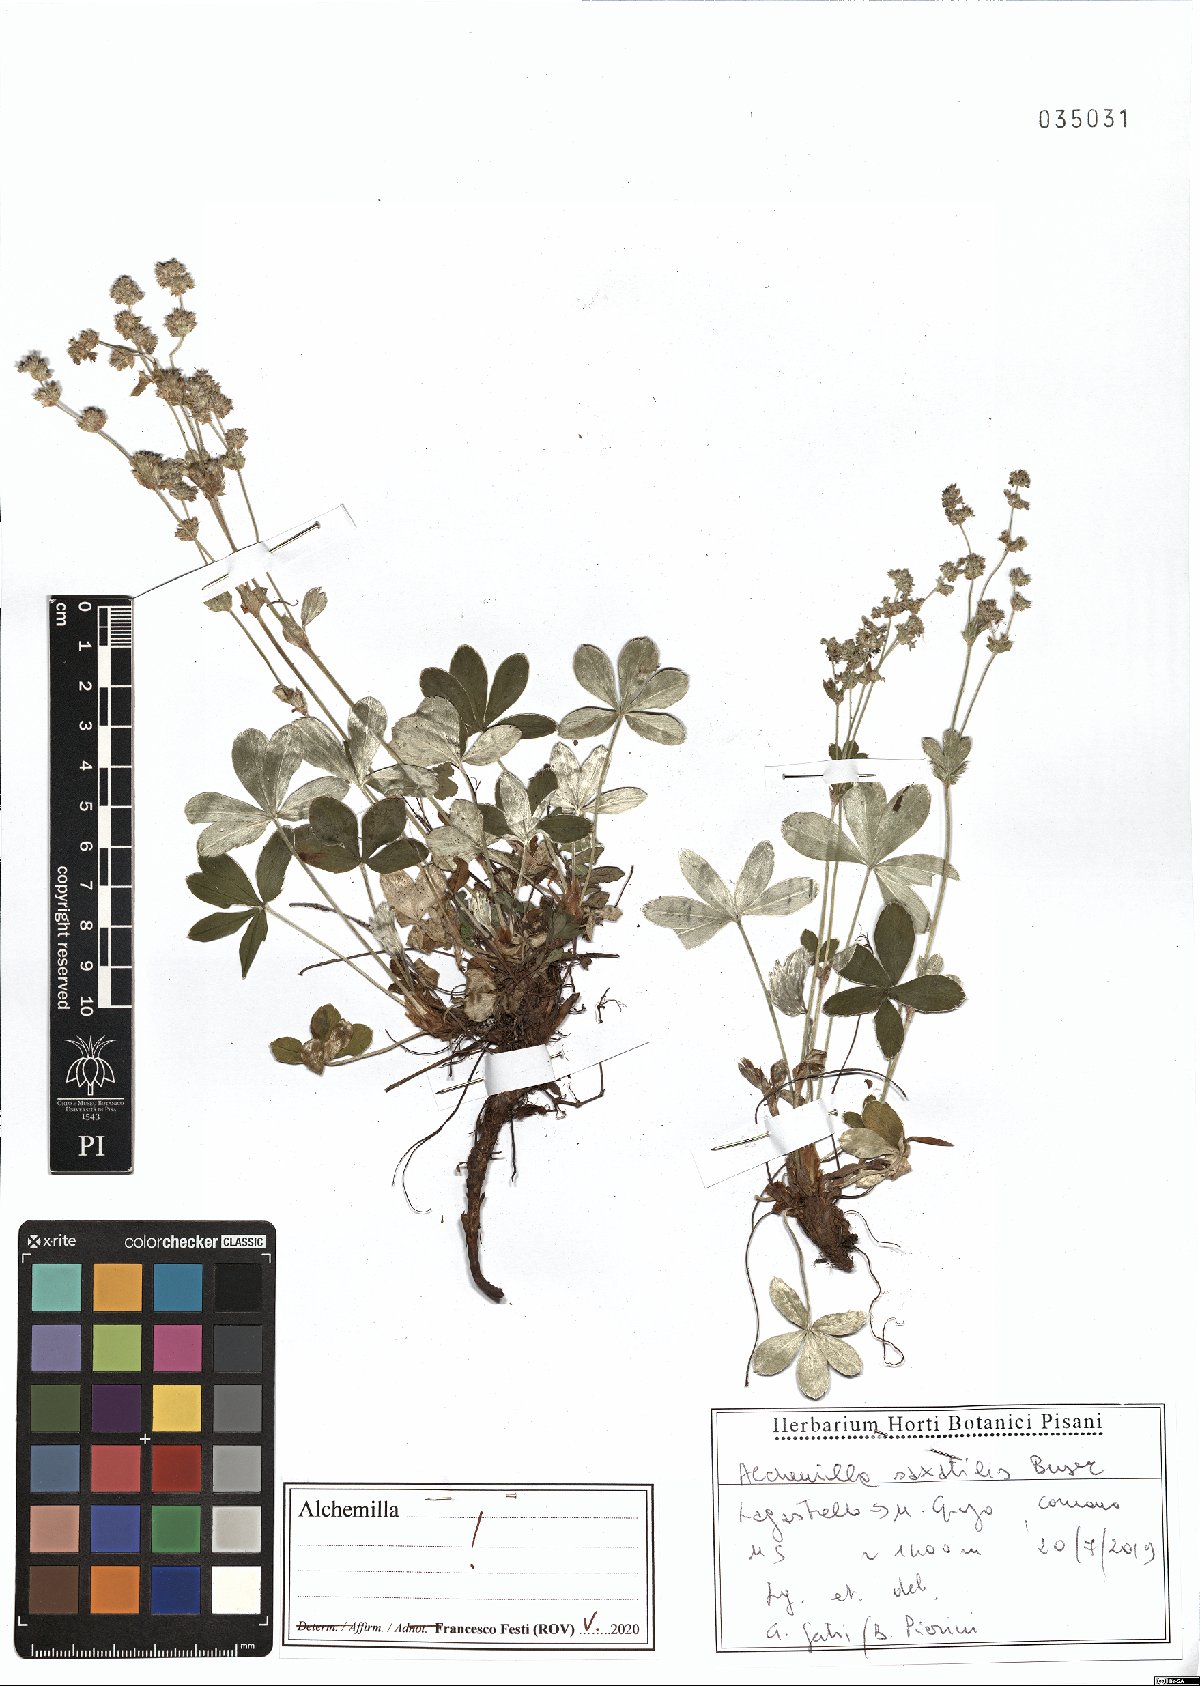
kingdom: Plantae
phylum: Tracheophyta
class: Magnoliopsida
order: Rosales
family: Rosaceae
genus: Alchemilla
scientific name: Alchemilla saxatilis
